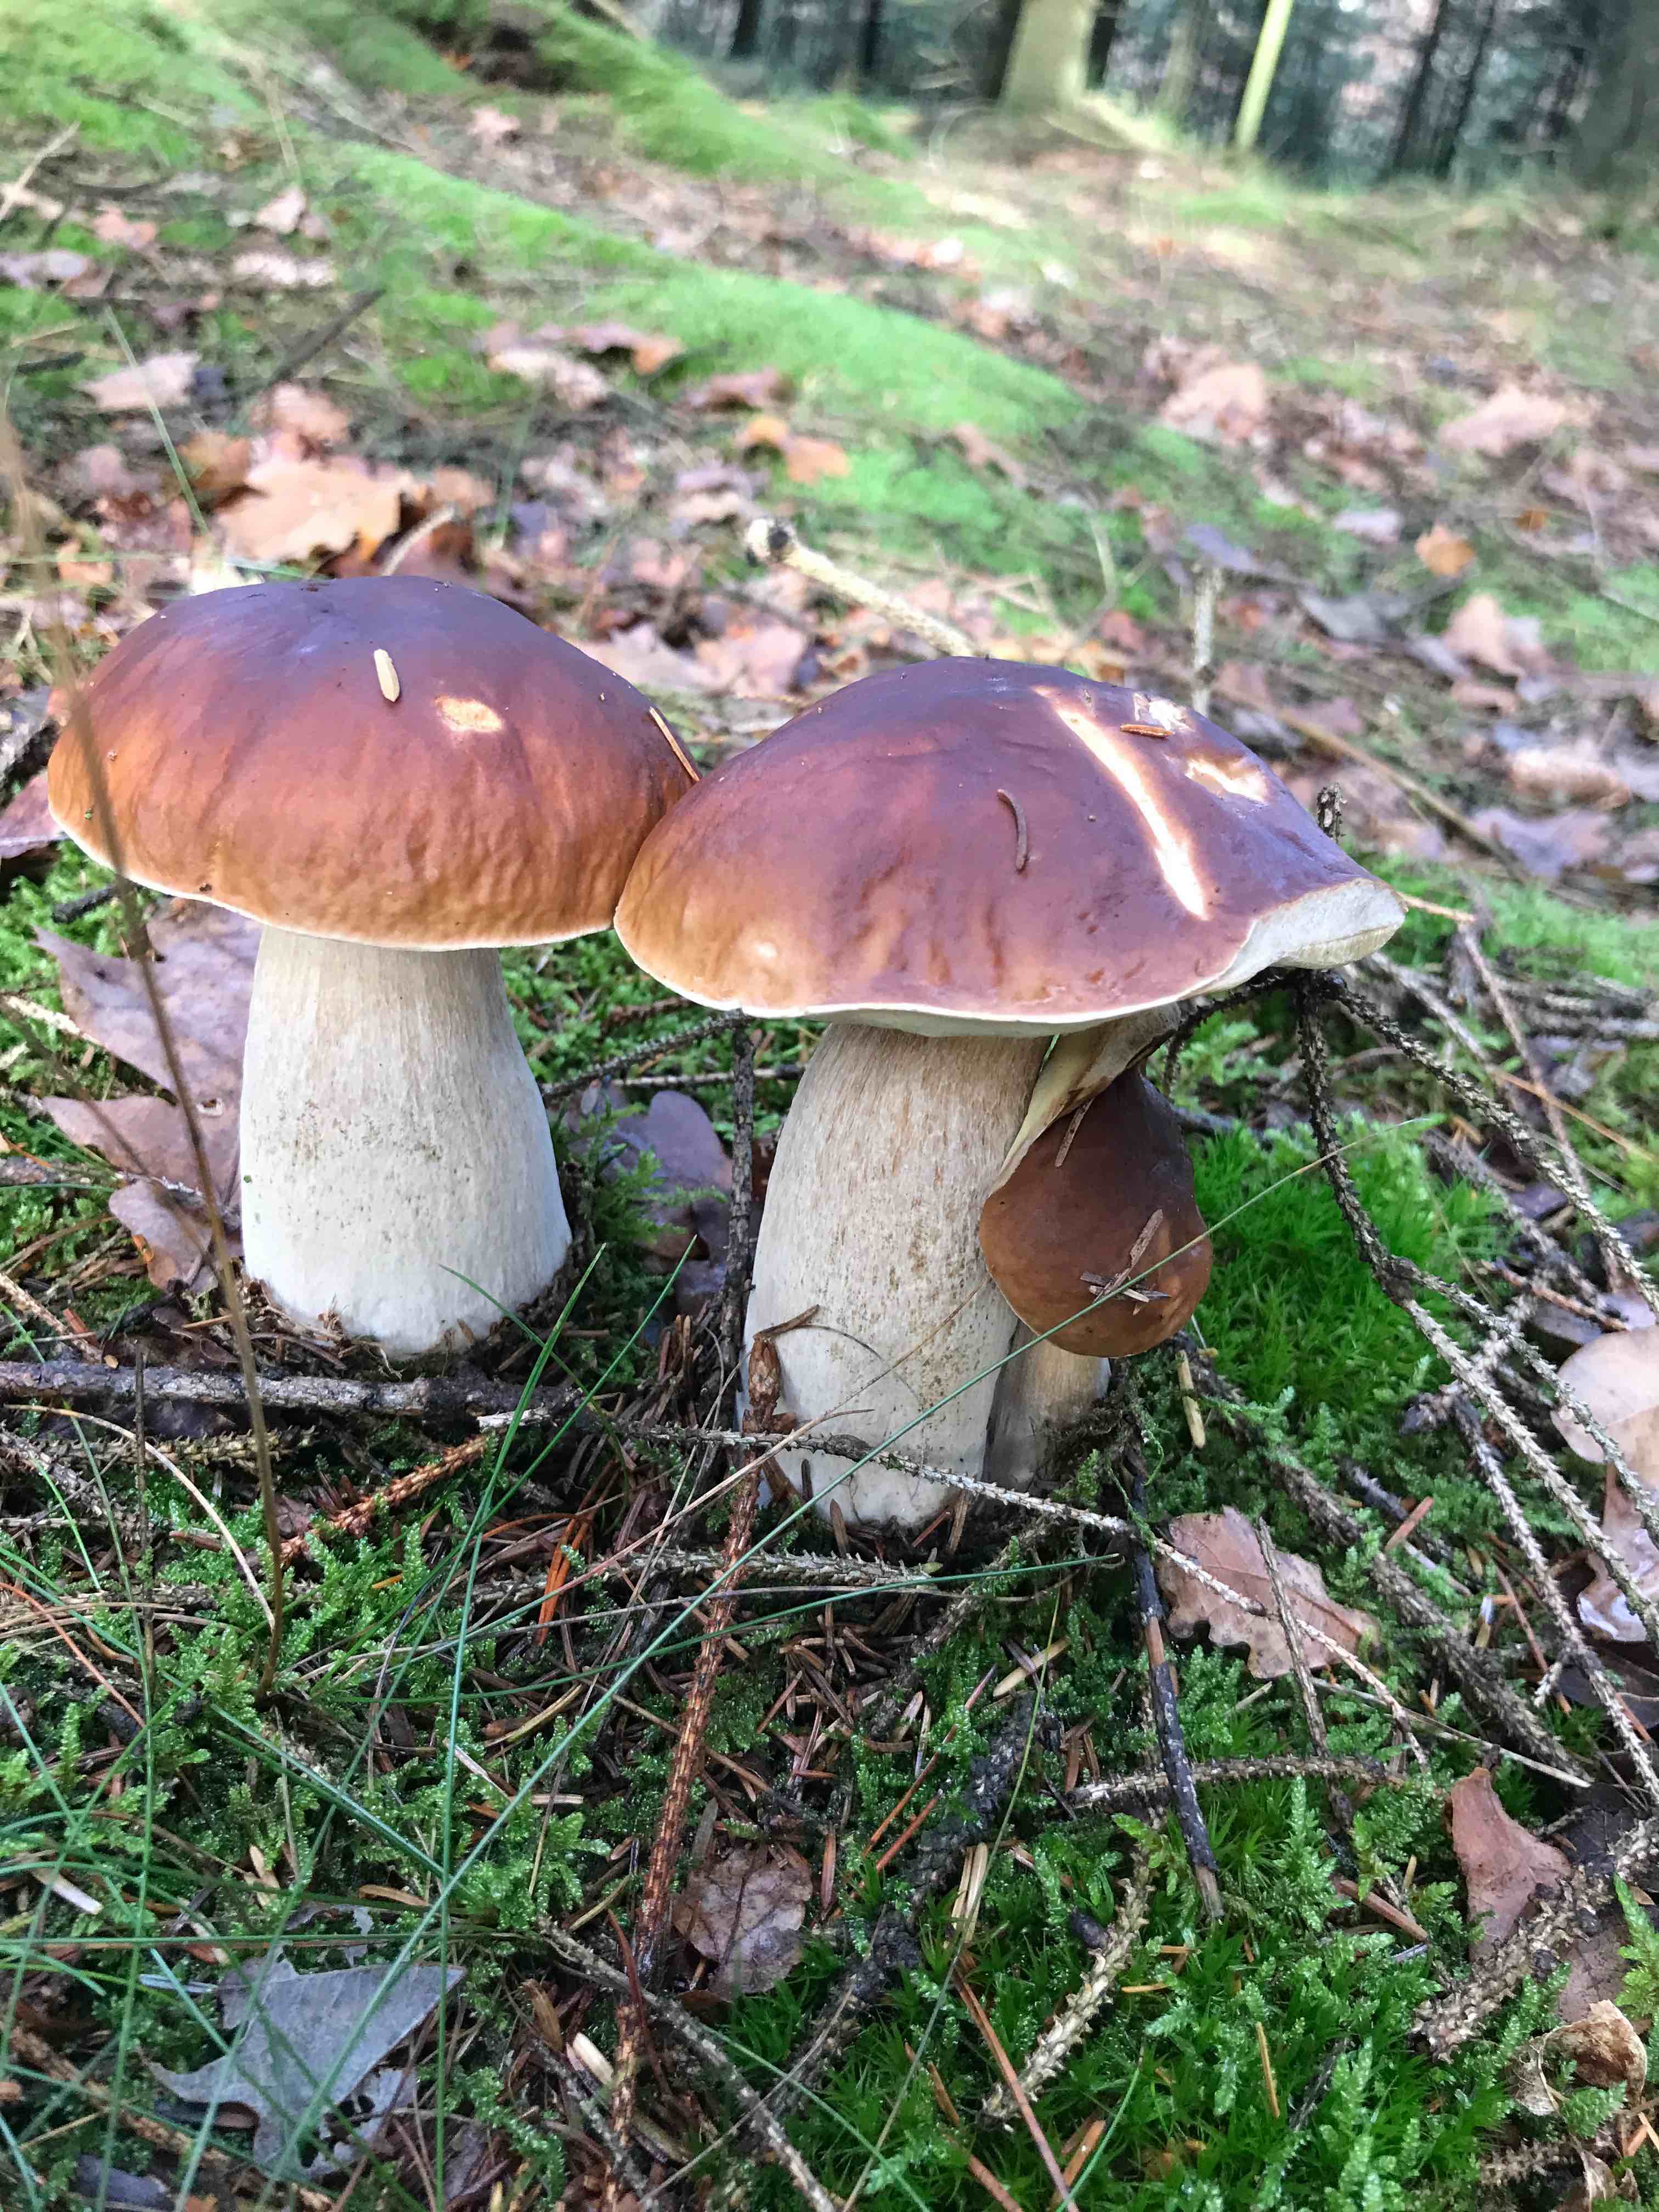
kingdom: Fungi
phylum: Basidiomycota
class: Agaricomycetes
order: Boletales
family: Boletaceae
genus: Boletus
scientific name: Boletus edulis
